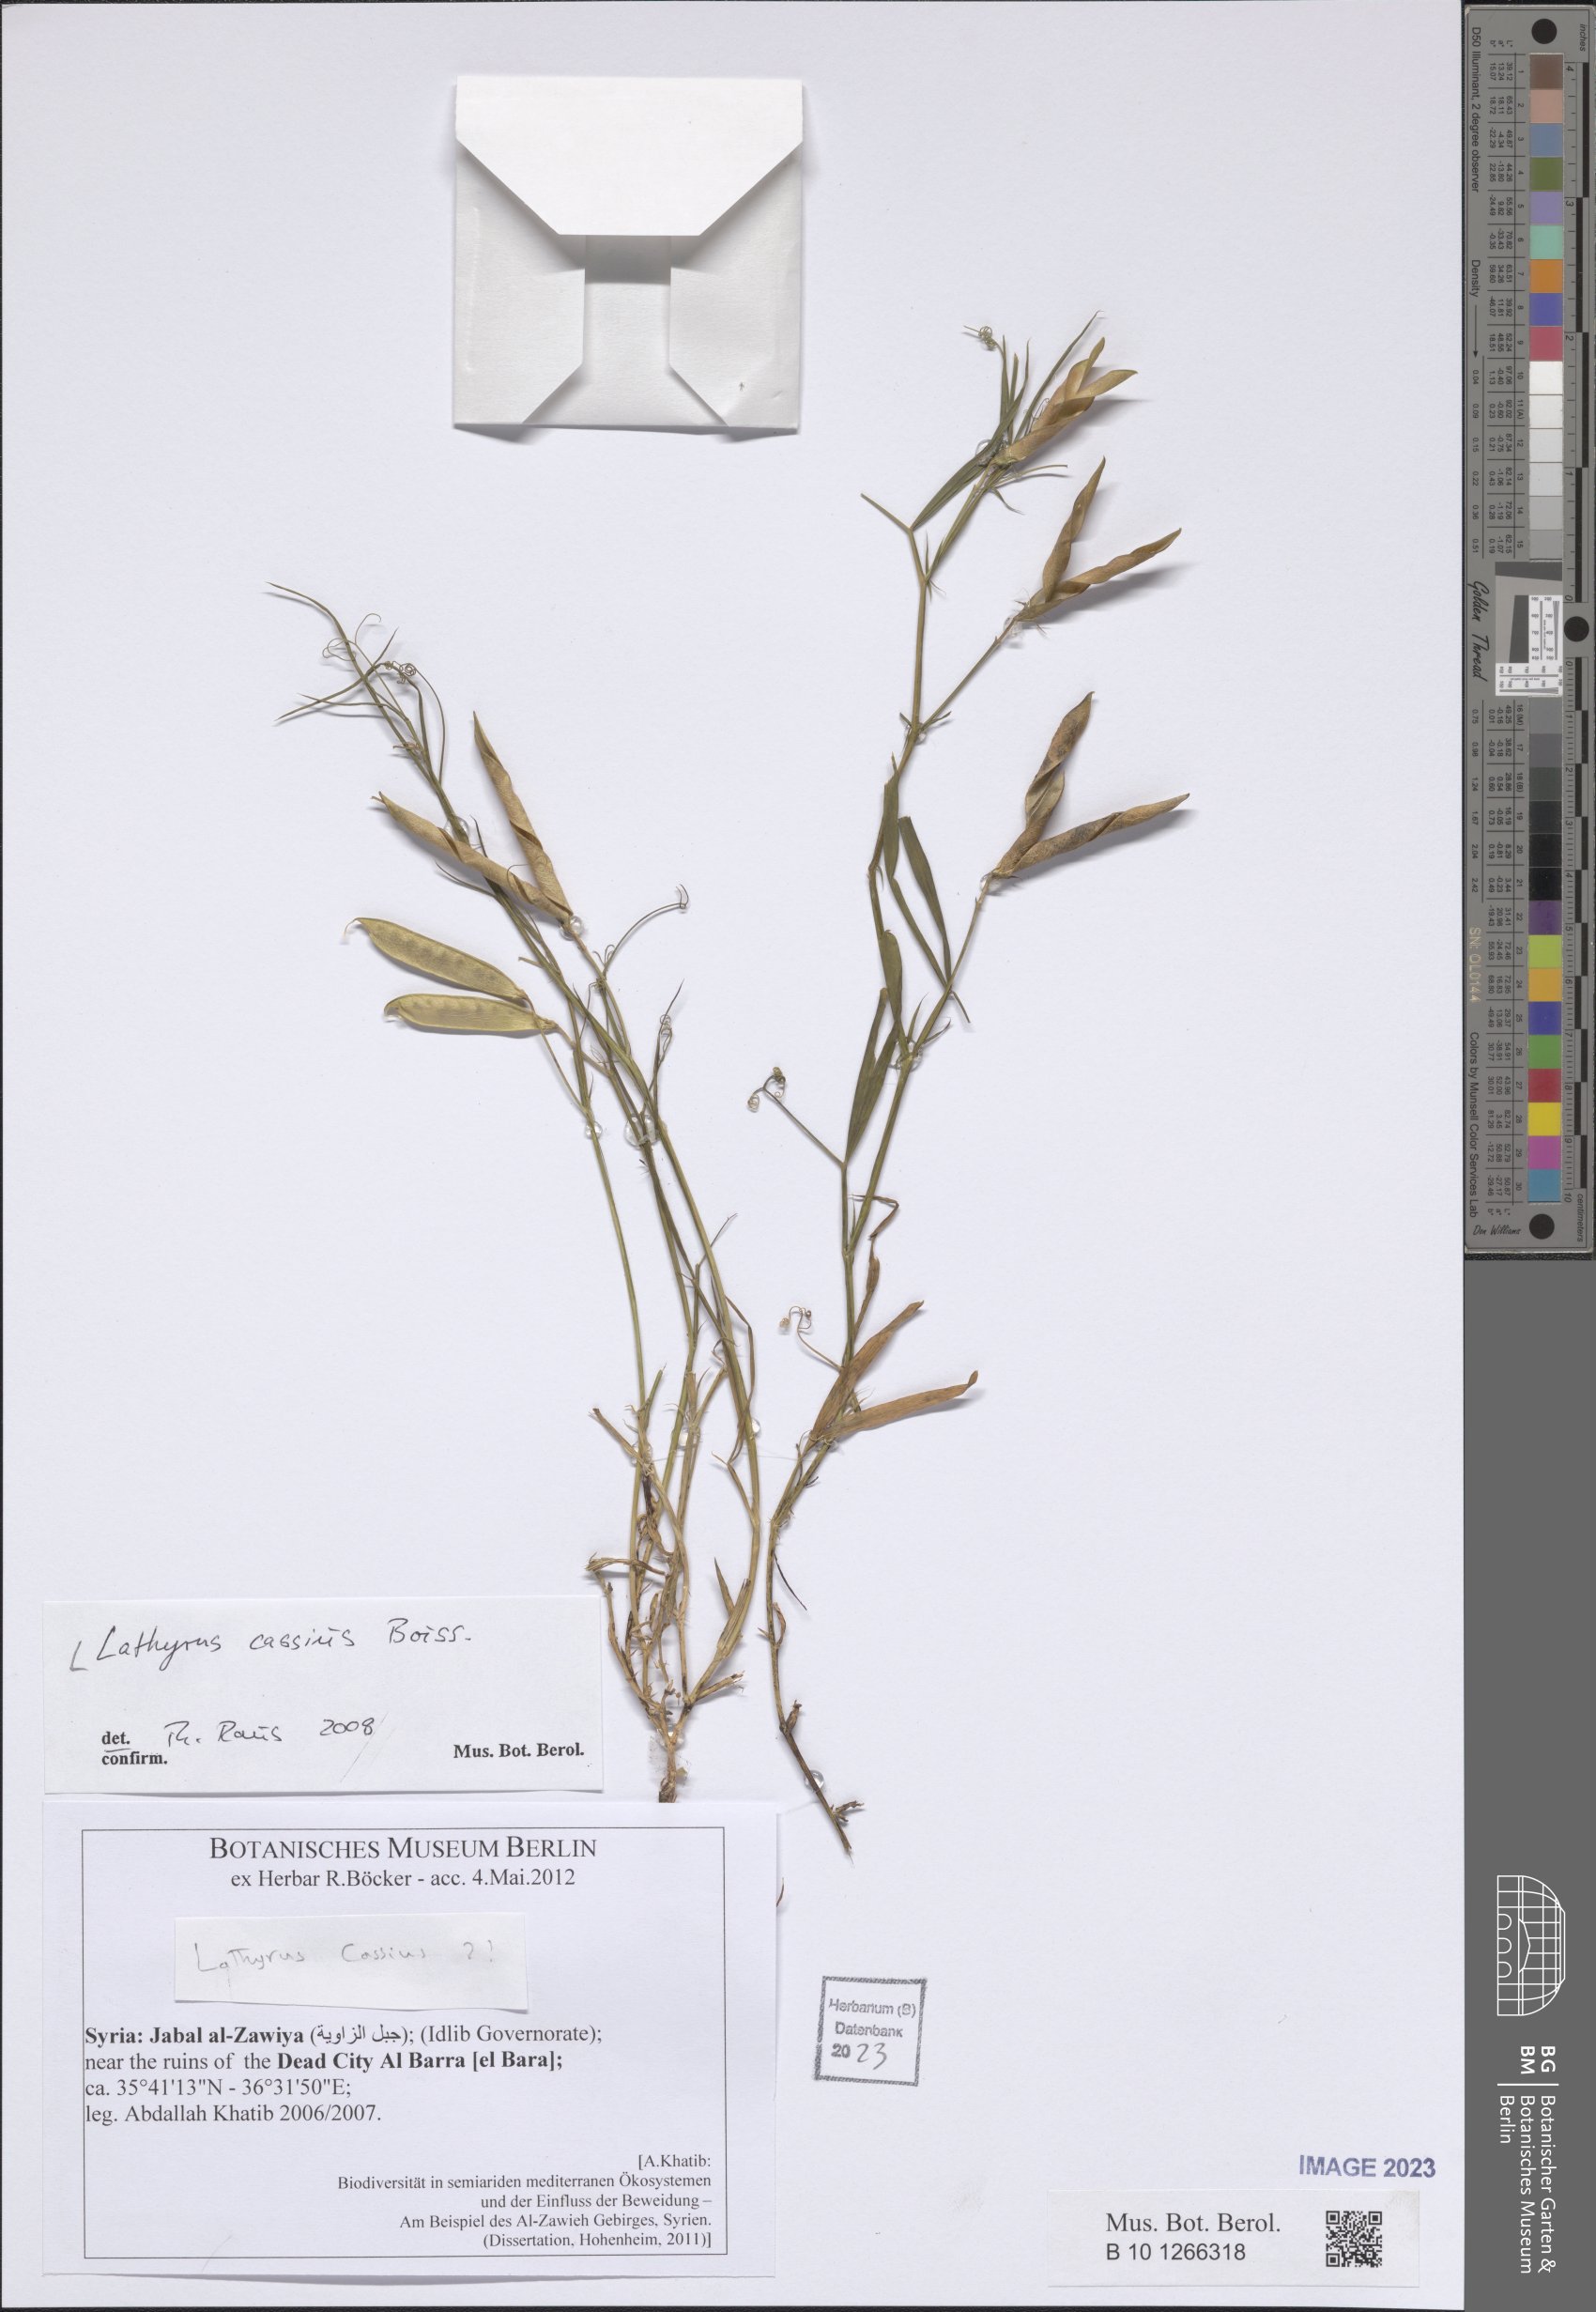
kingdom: Plantae
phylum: Tracheophyta
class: Magnoliopsida
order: Fabales
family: Fabaceae
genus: Lathyrus
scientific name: Lathyrus cassius
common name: Sweet pea
